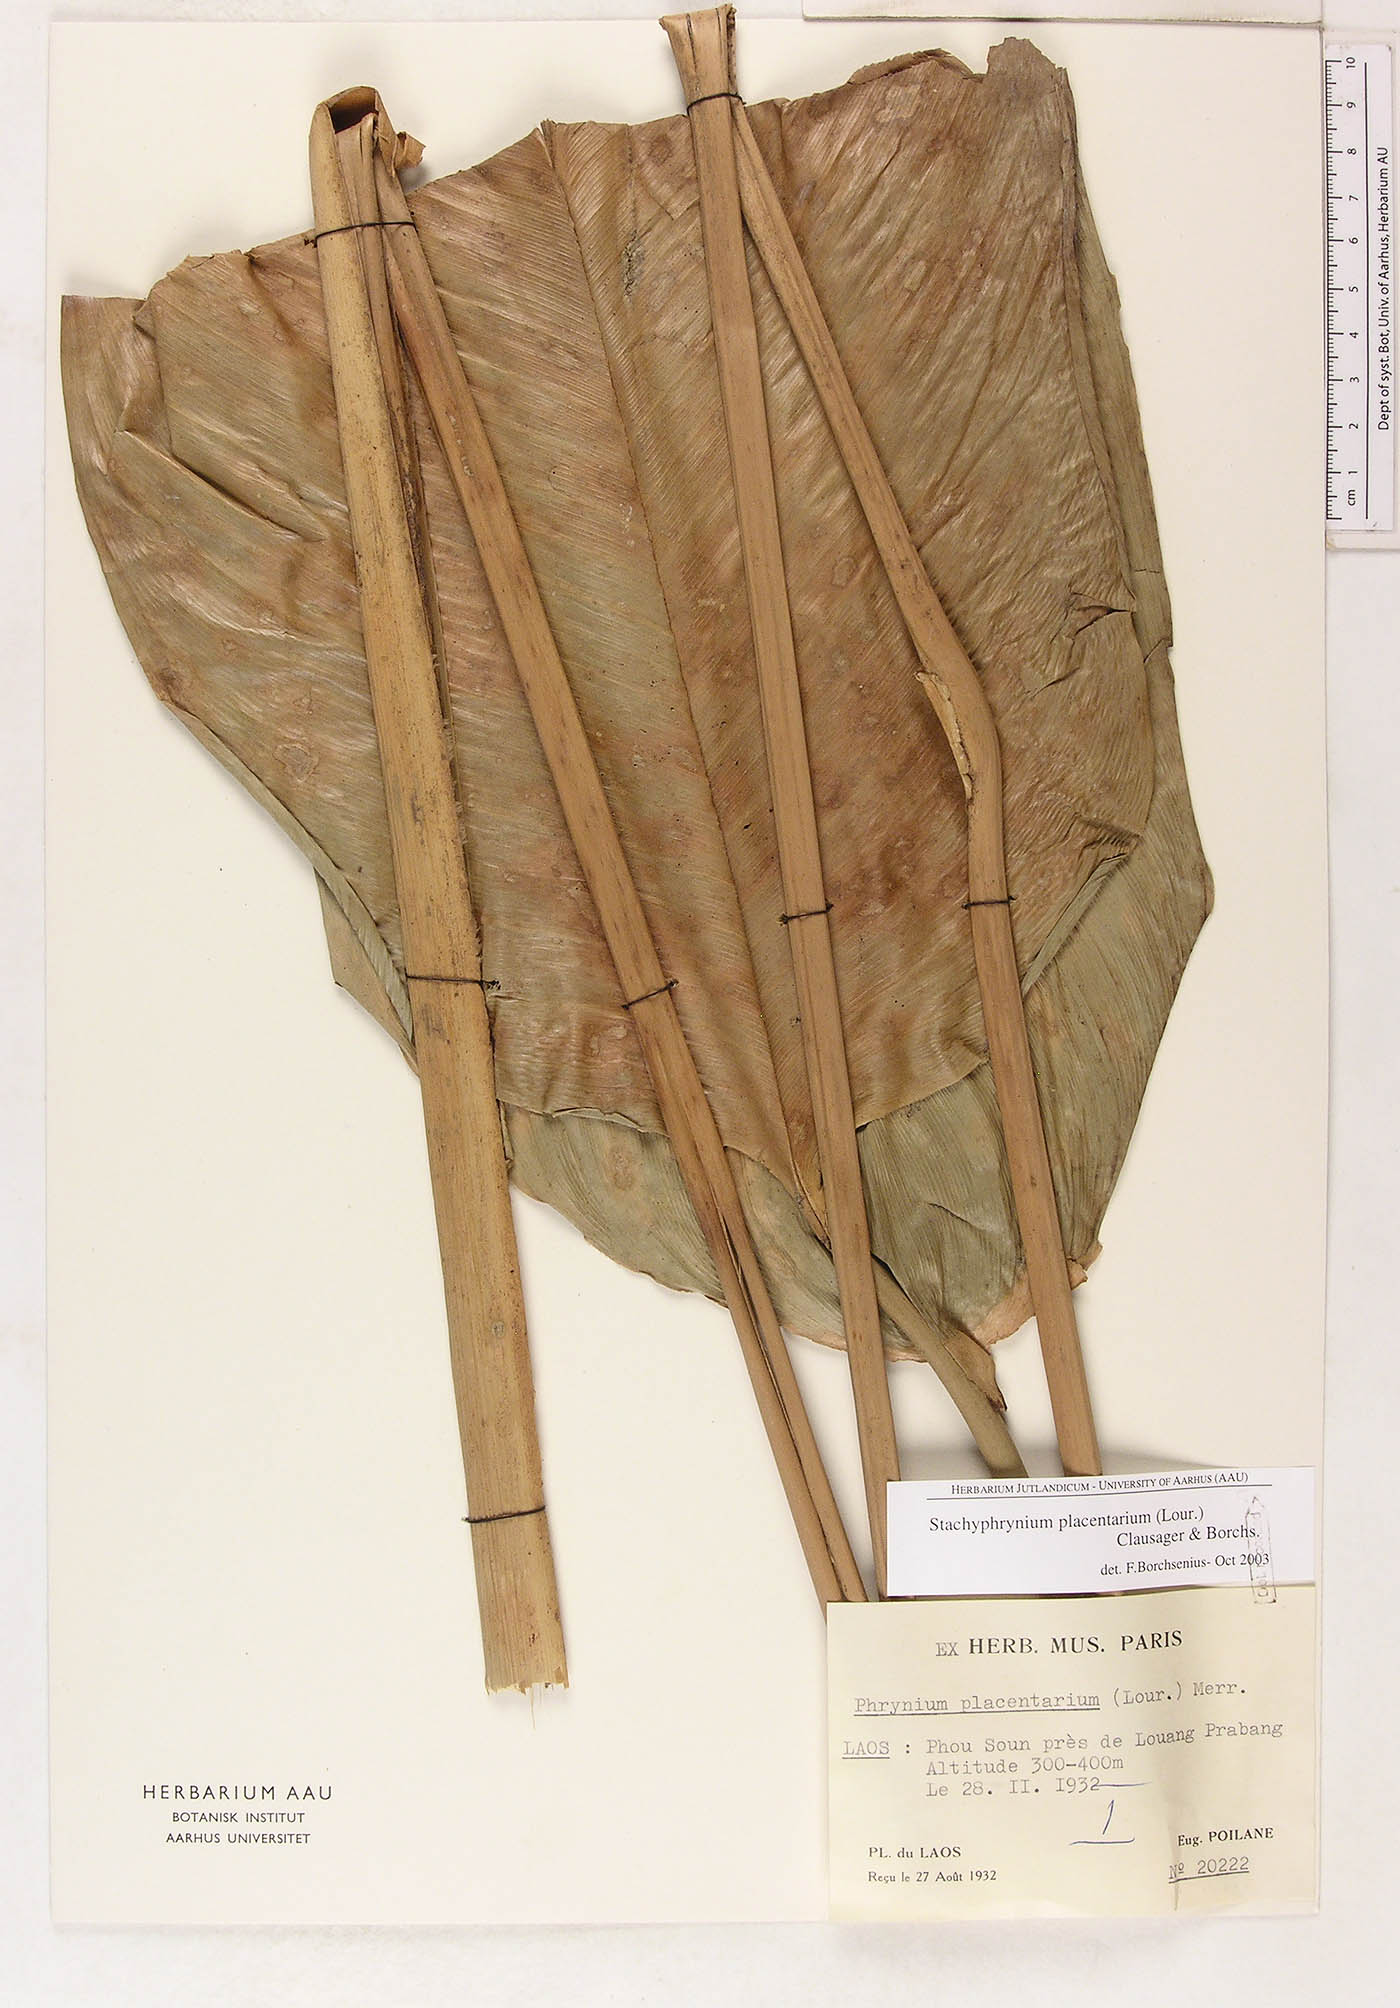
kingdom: Plantae
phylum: Tracheophyta
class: Liliopsida
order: Zingiberales
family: Marantaceae
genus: Stachyphrynium
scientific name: Stachyphrynium placentarium
